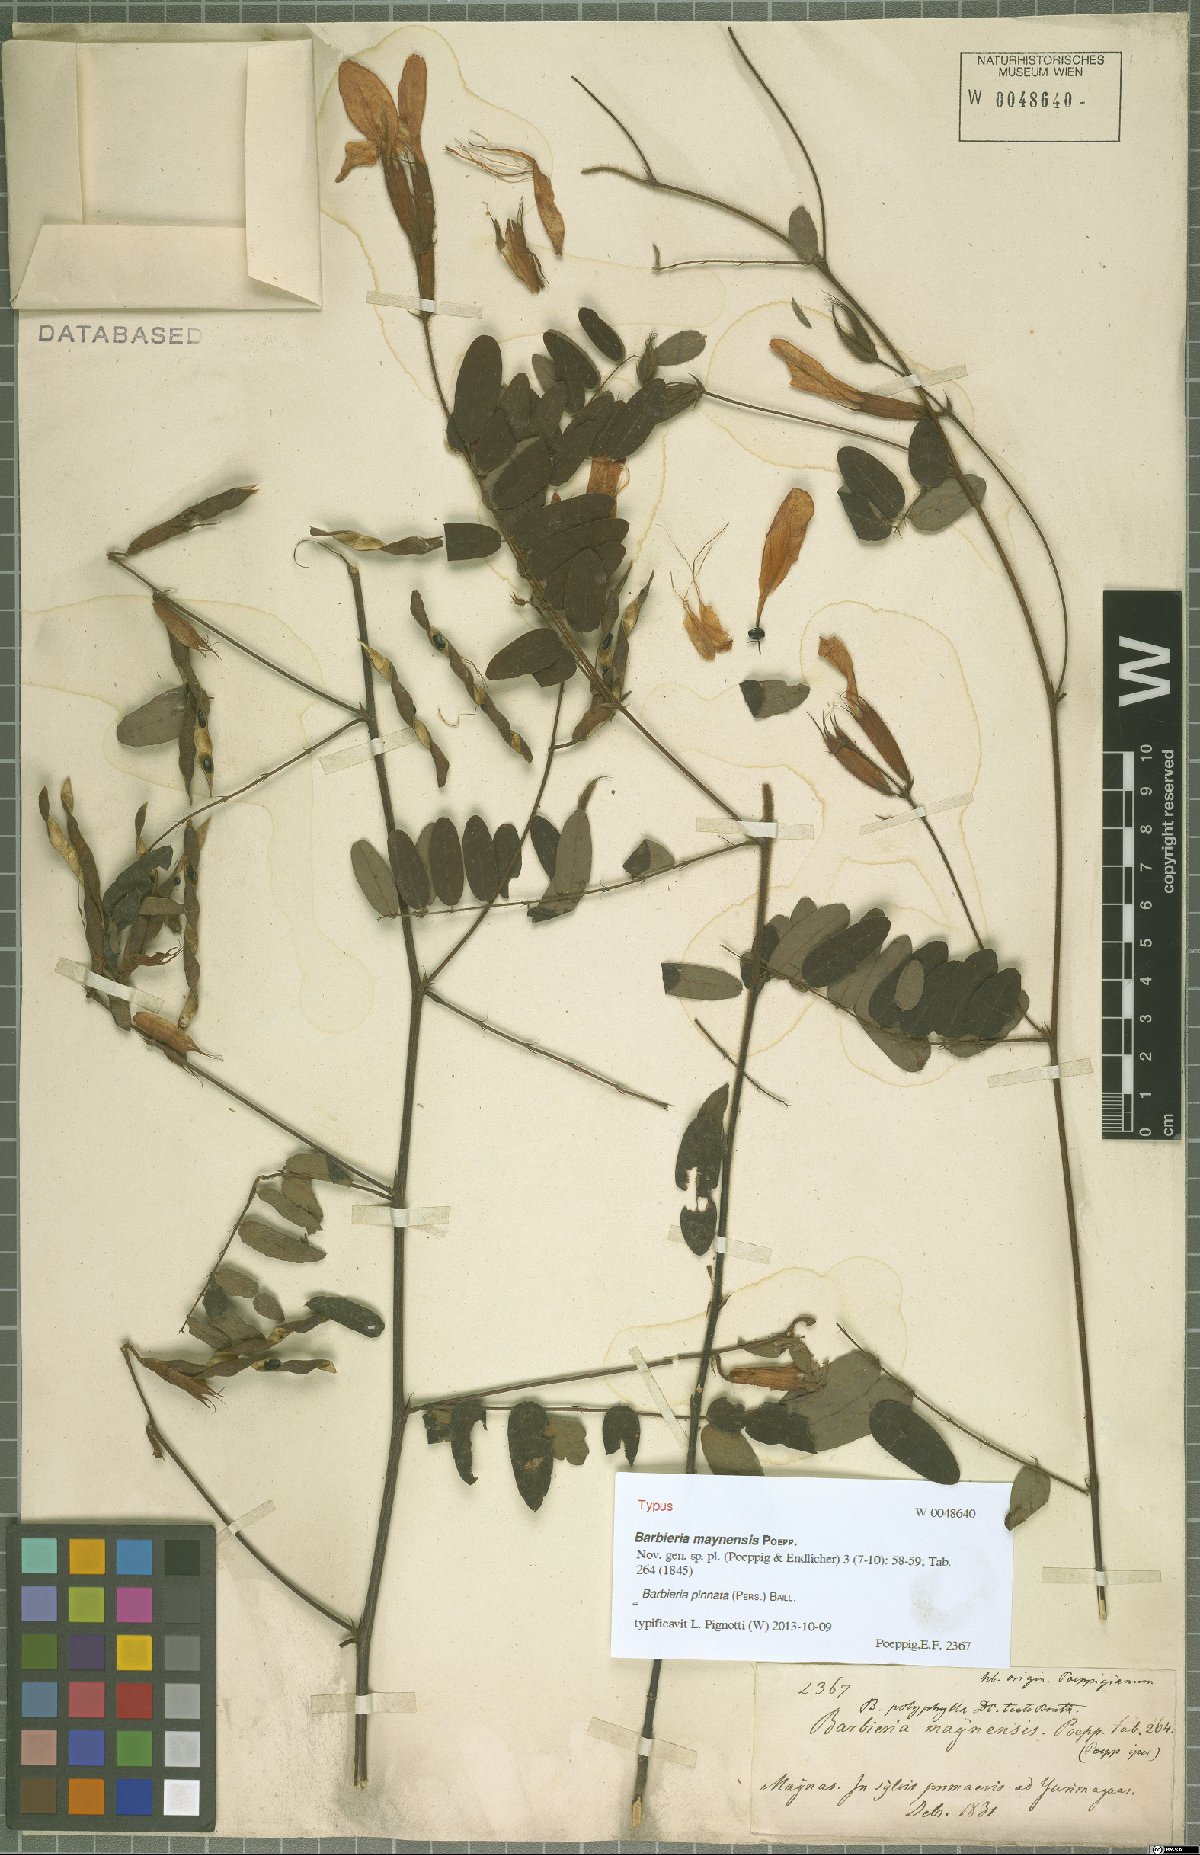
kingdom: Plantae
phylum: Tracheophyta
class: Magnoliopsida
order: Fabales
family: Fabaceae
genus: Barbieria
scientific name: Barbieria pinnata
